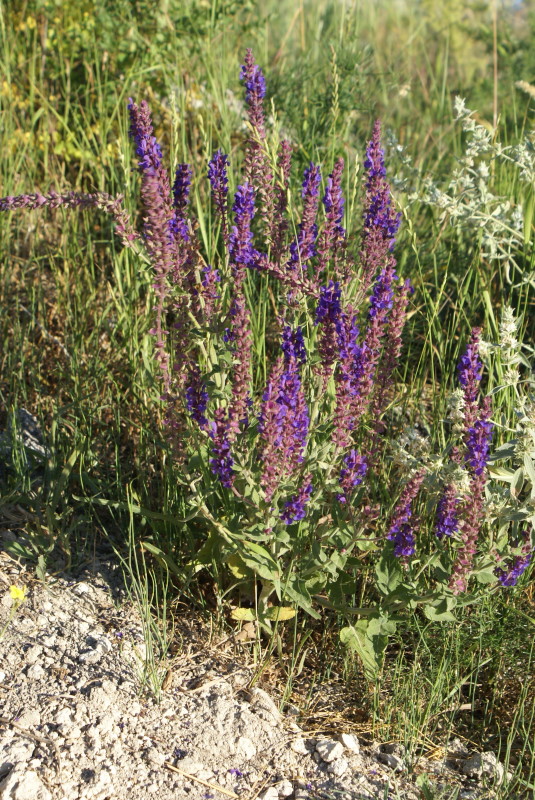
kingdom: Plantae
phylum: Tracheophyta
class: Magnoliopsida
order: Lamiales
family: Lamiaceae
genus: Salvia
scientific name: Salvia
